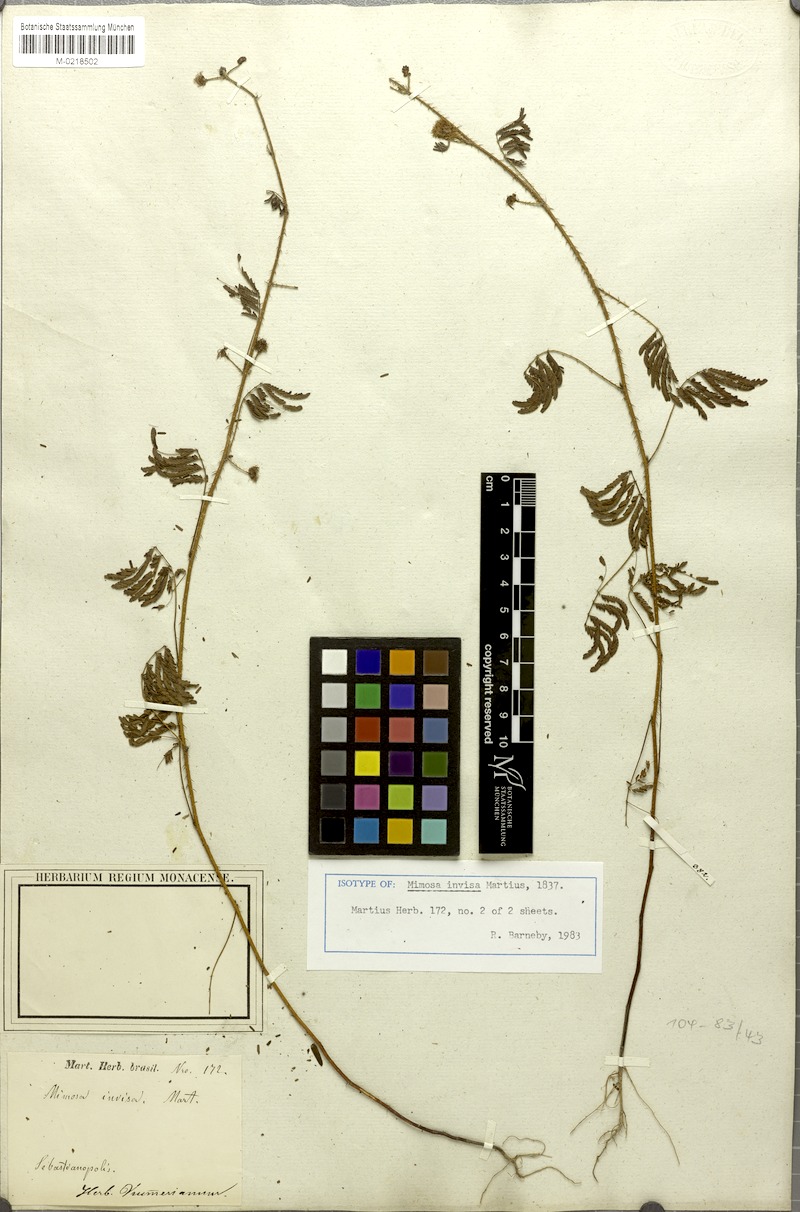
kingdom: Plantae
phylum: Tracheophyta
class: Magnoliopsida
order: Fabales
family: Fabaceae
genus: Mimosa
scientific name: Mimosa diplotricha
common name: Giant sensitive-plant
